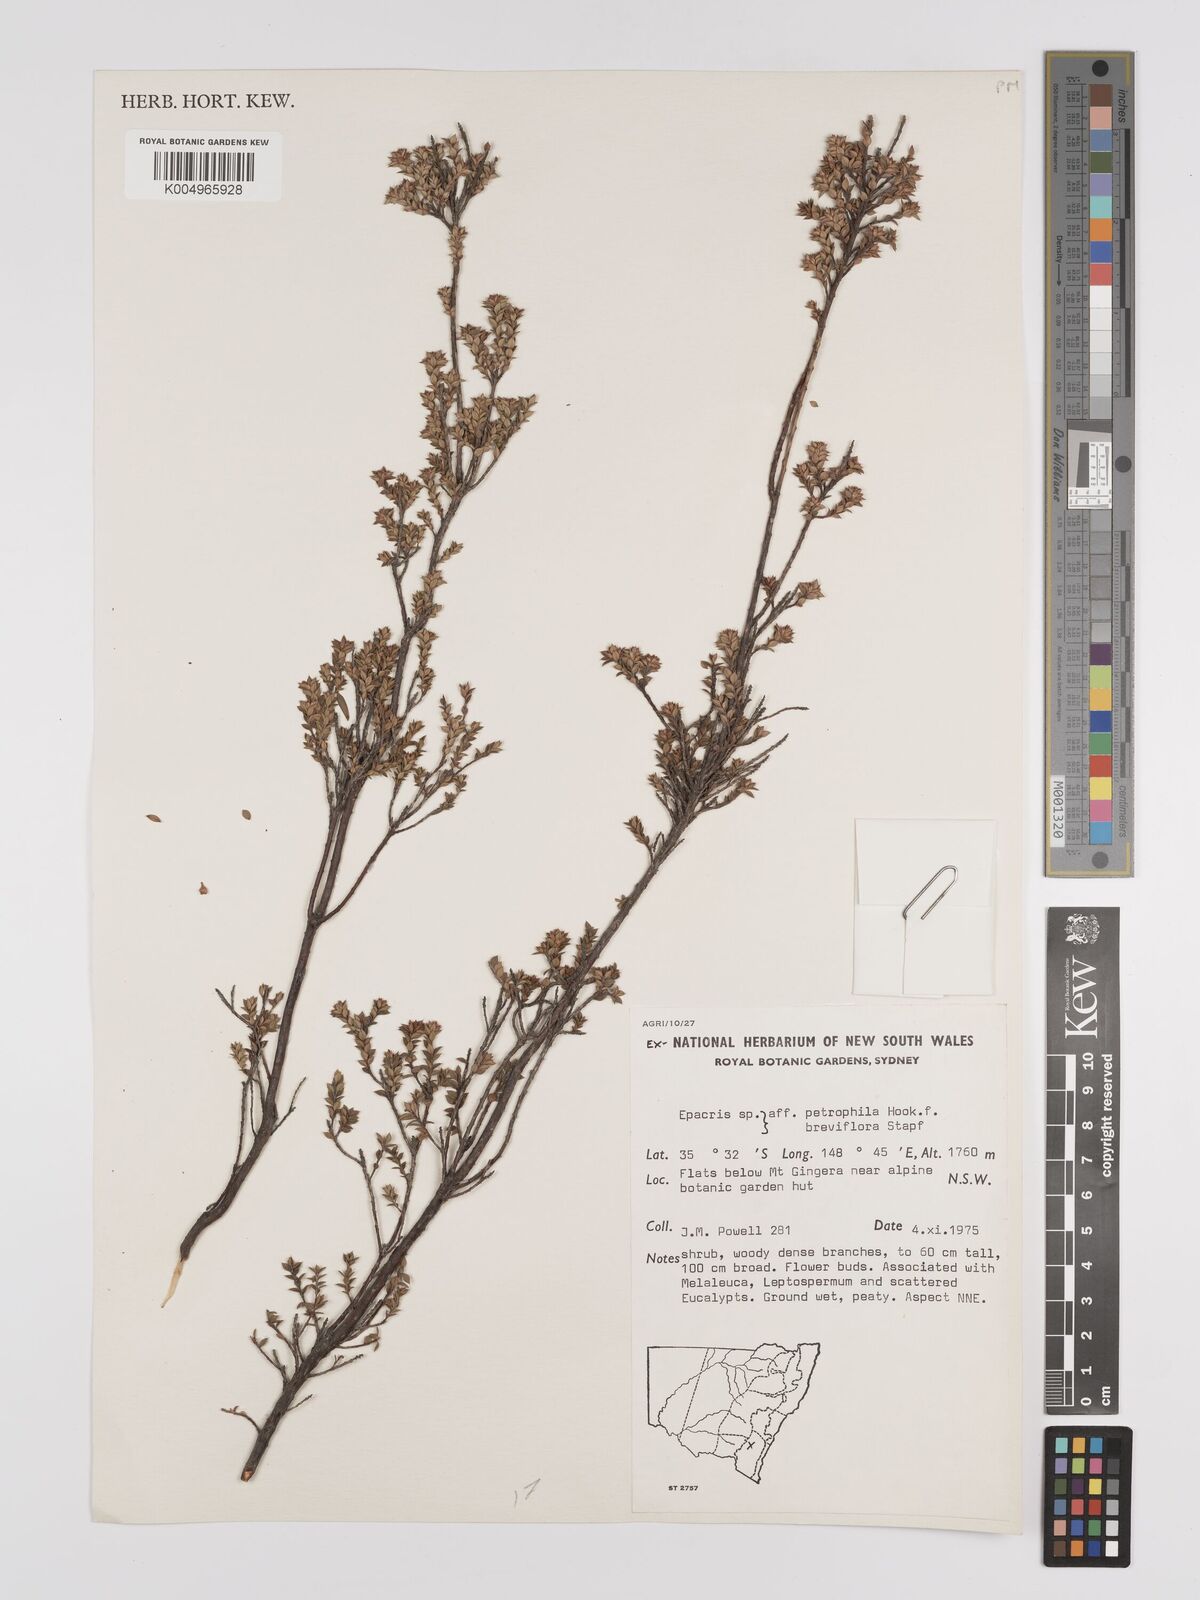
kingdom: Plantae
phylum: Tracheophyta
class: Magnoliopsida
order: Ericales
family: Ericaceae
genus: Epacris
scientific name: Epacris
